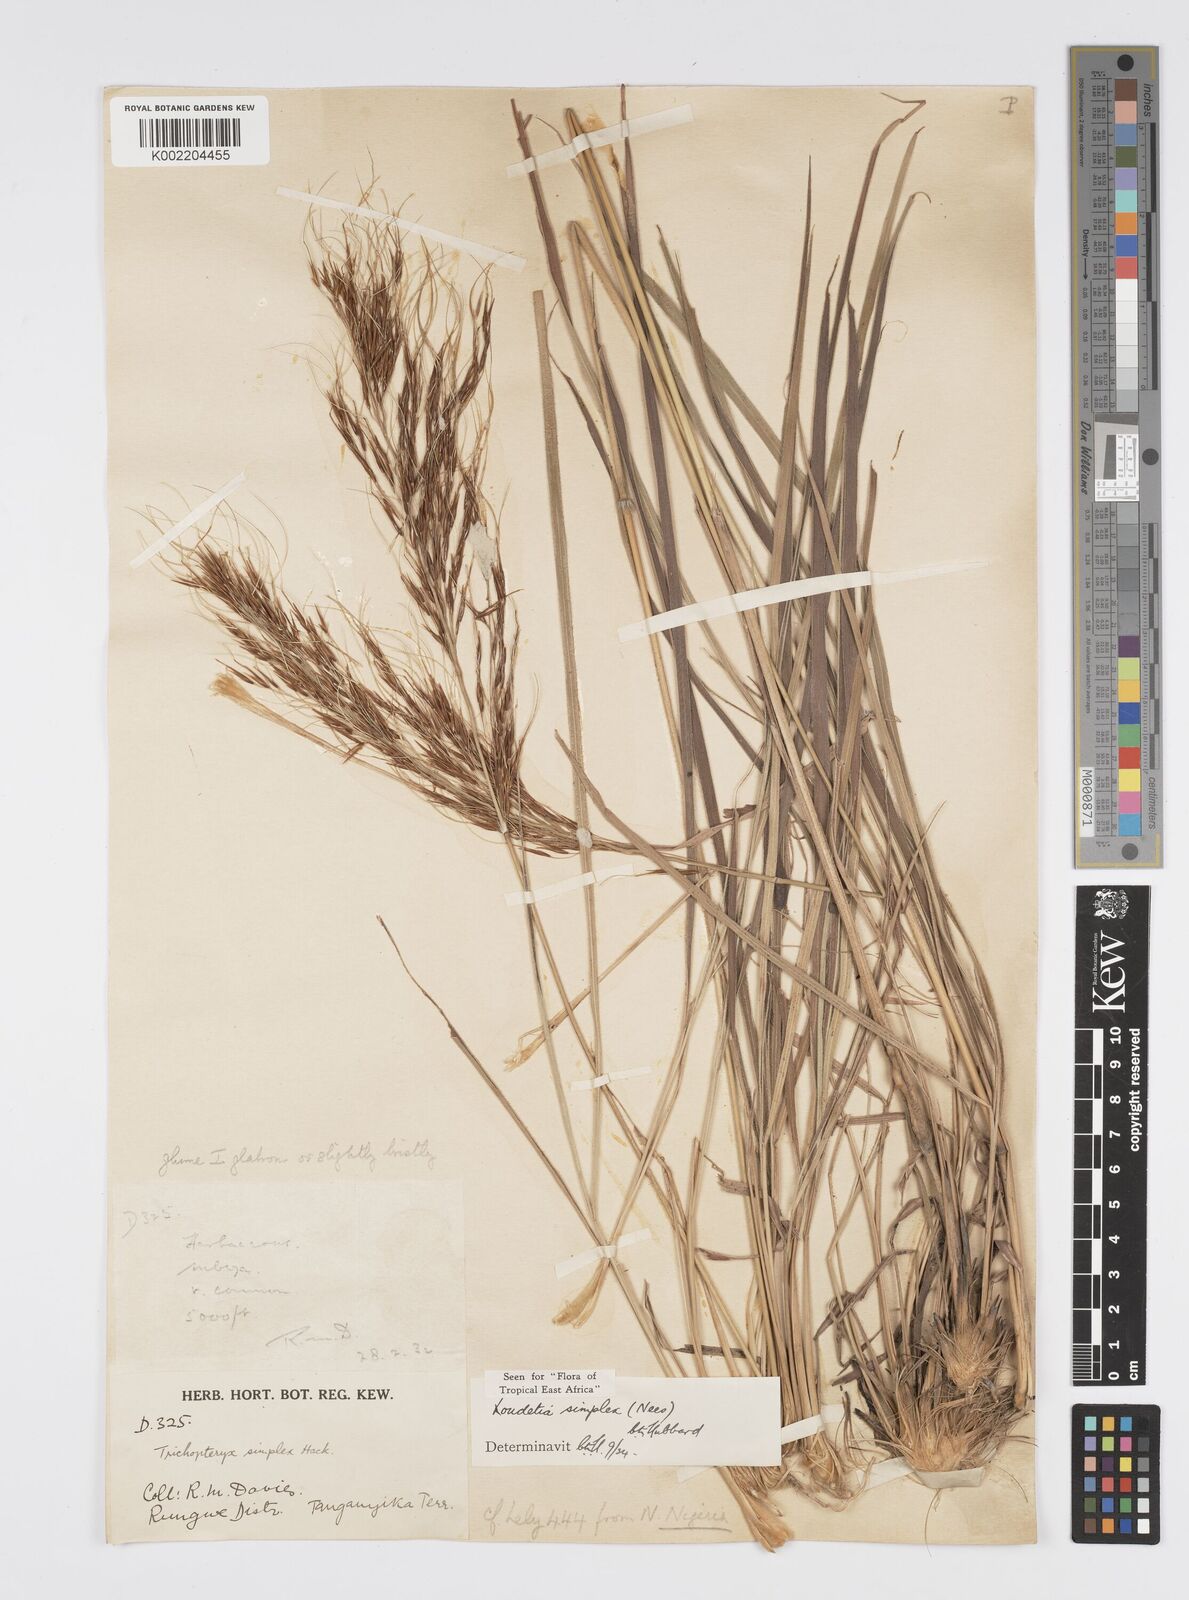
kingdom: Plantae
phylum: Tracheophyta
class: Liliopsida
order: Poales
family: Poaceae
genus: Loudetia
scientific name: Loudetia simplex
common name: Common russet grass
